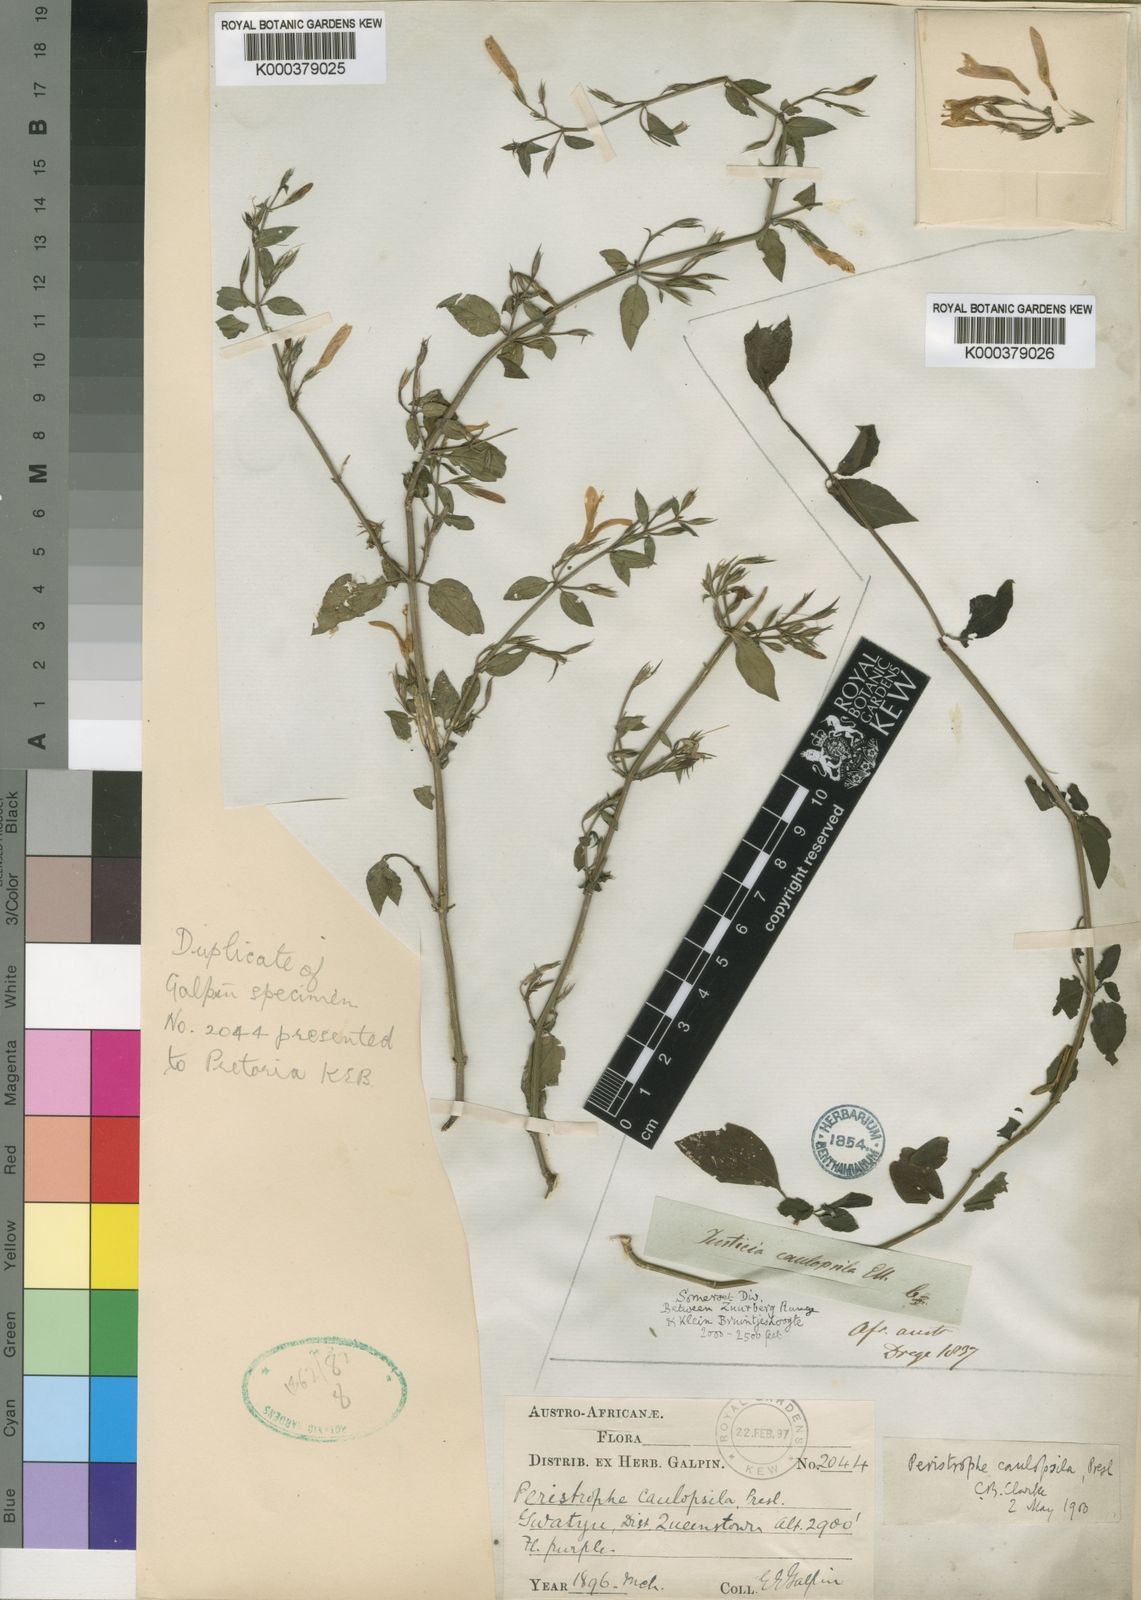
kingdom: Plantae
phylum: Tracheophyta
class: Magnoliopsida
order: Lamiales
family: Acanthaceae
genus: Dicliptera
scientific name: Dicliptera cernua
